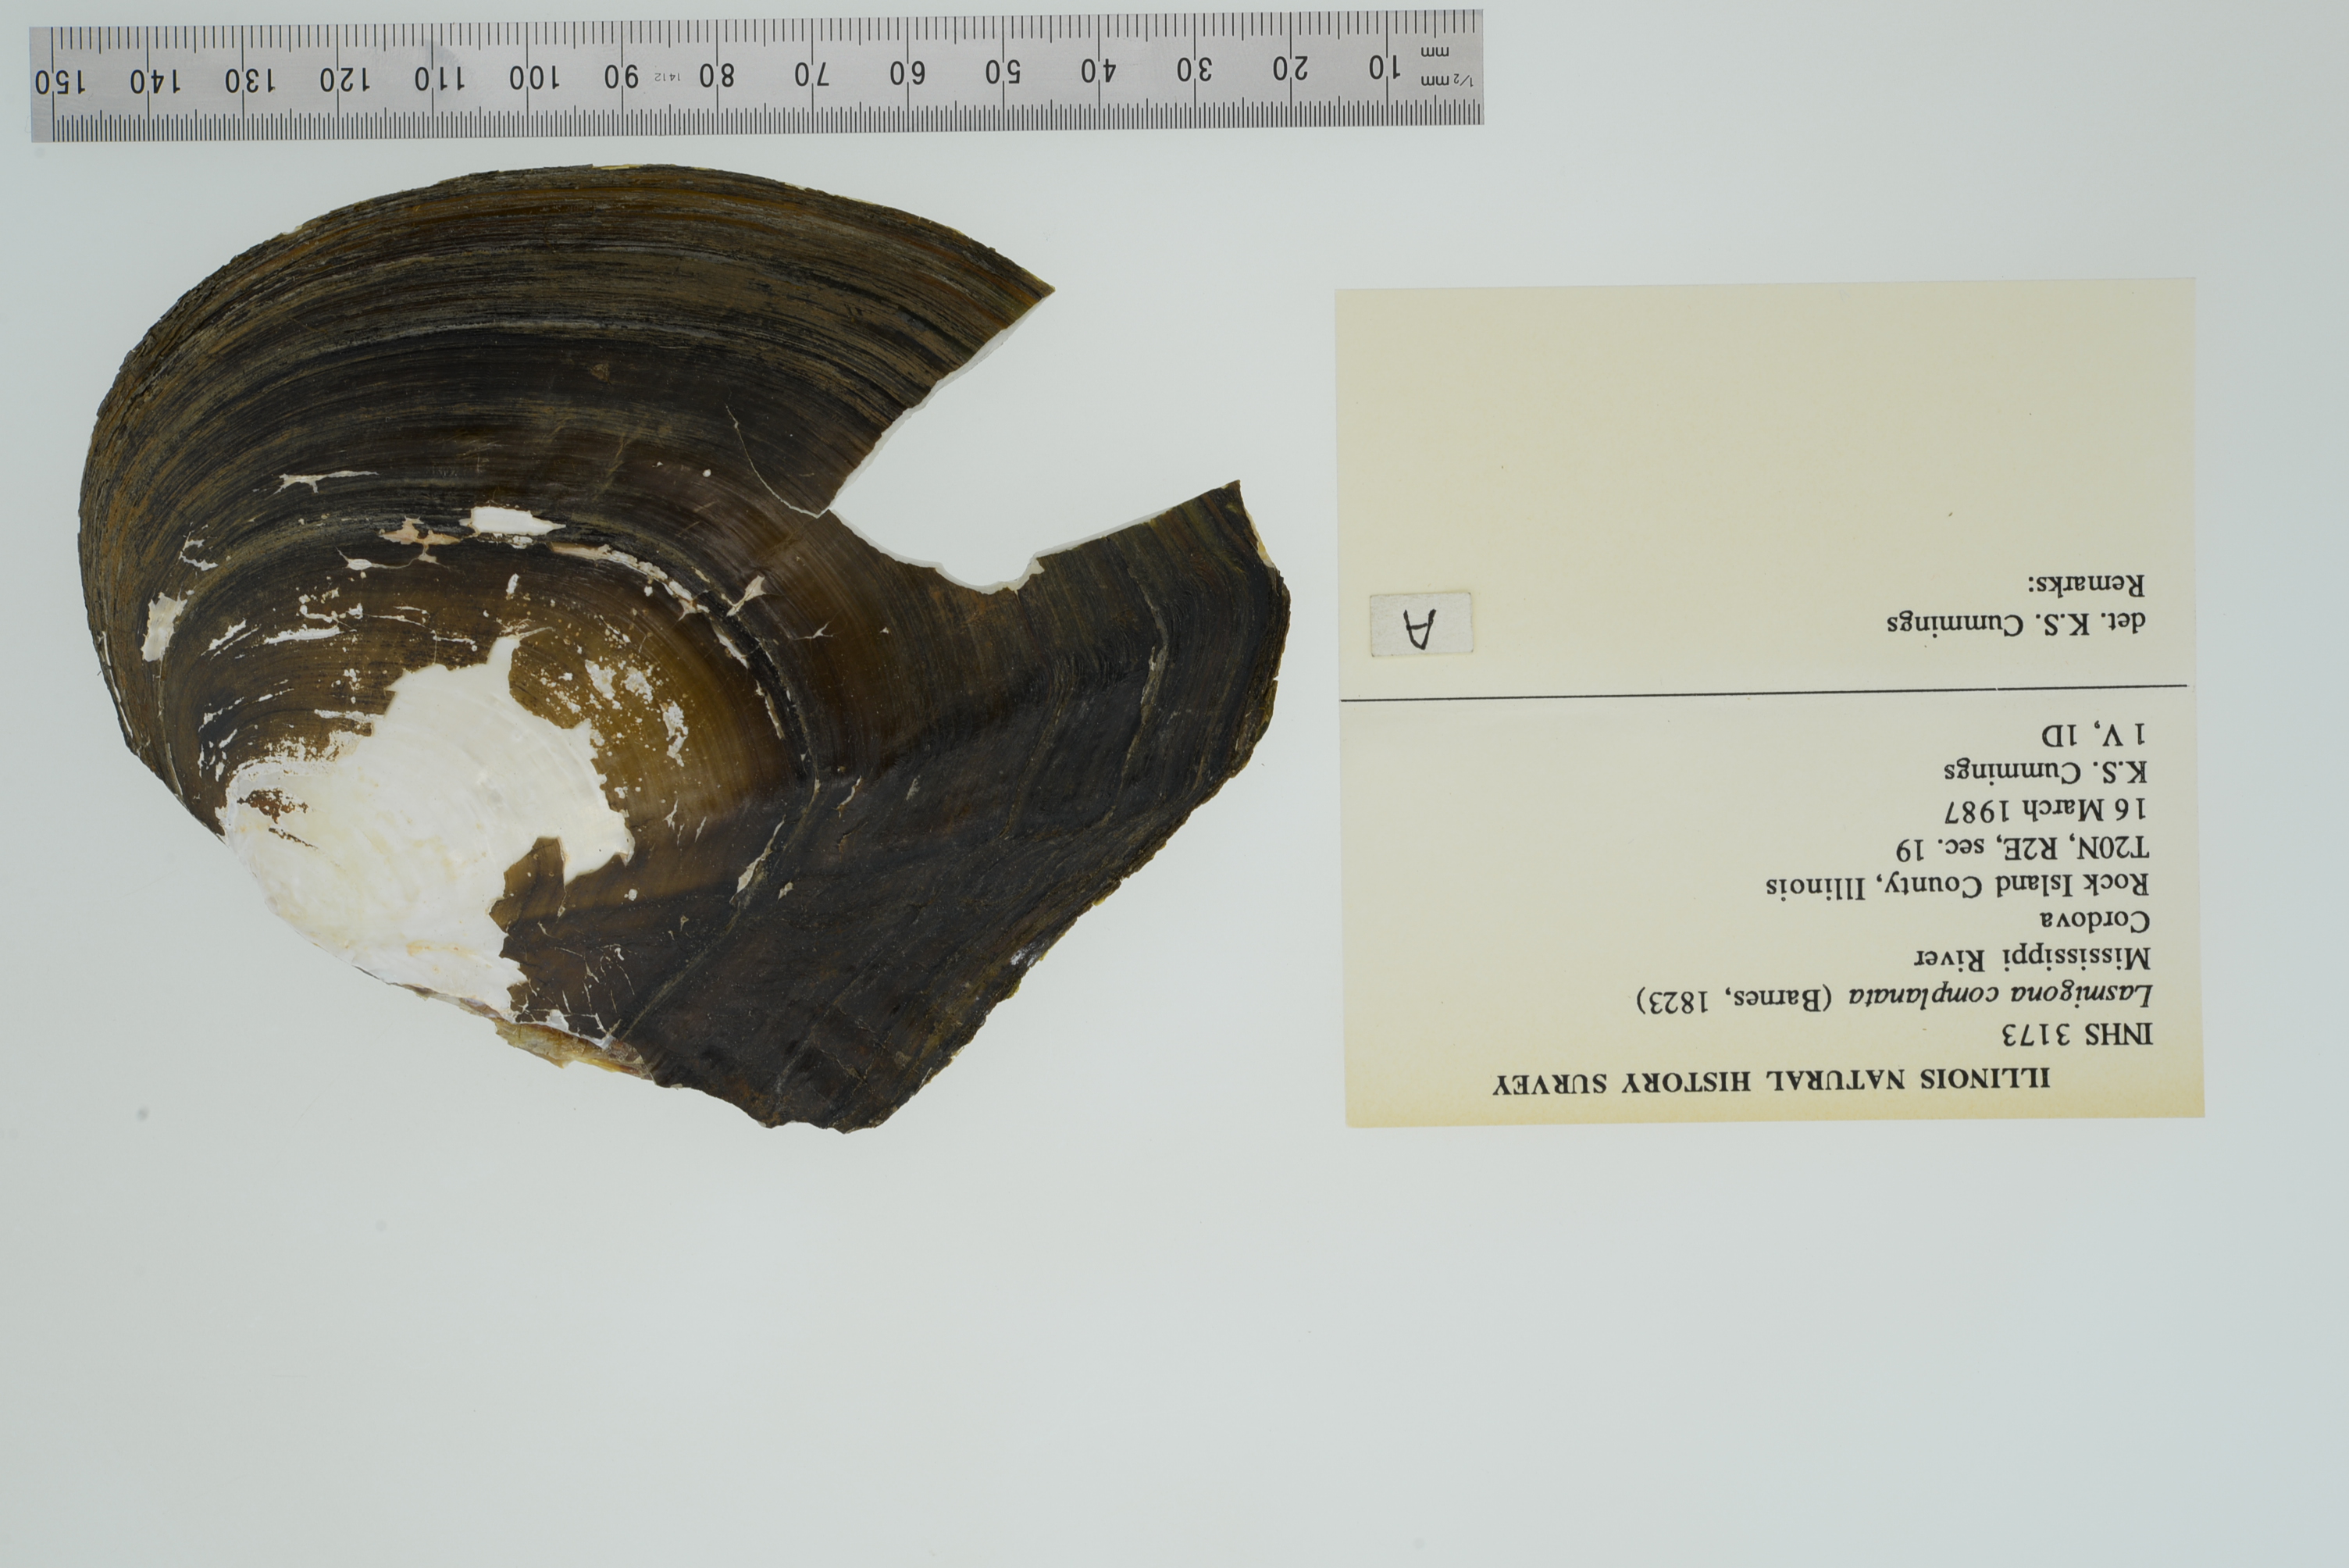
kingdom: Animalia
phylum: Mollusca
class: Bivalvia
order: Unionida
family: Unionidae
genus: Lasmigona
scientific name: Lasmigona complanata
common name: White heelsplitter
